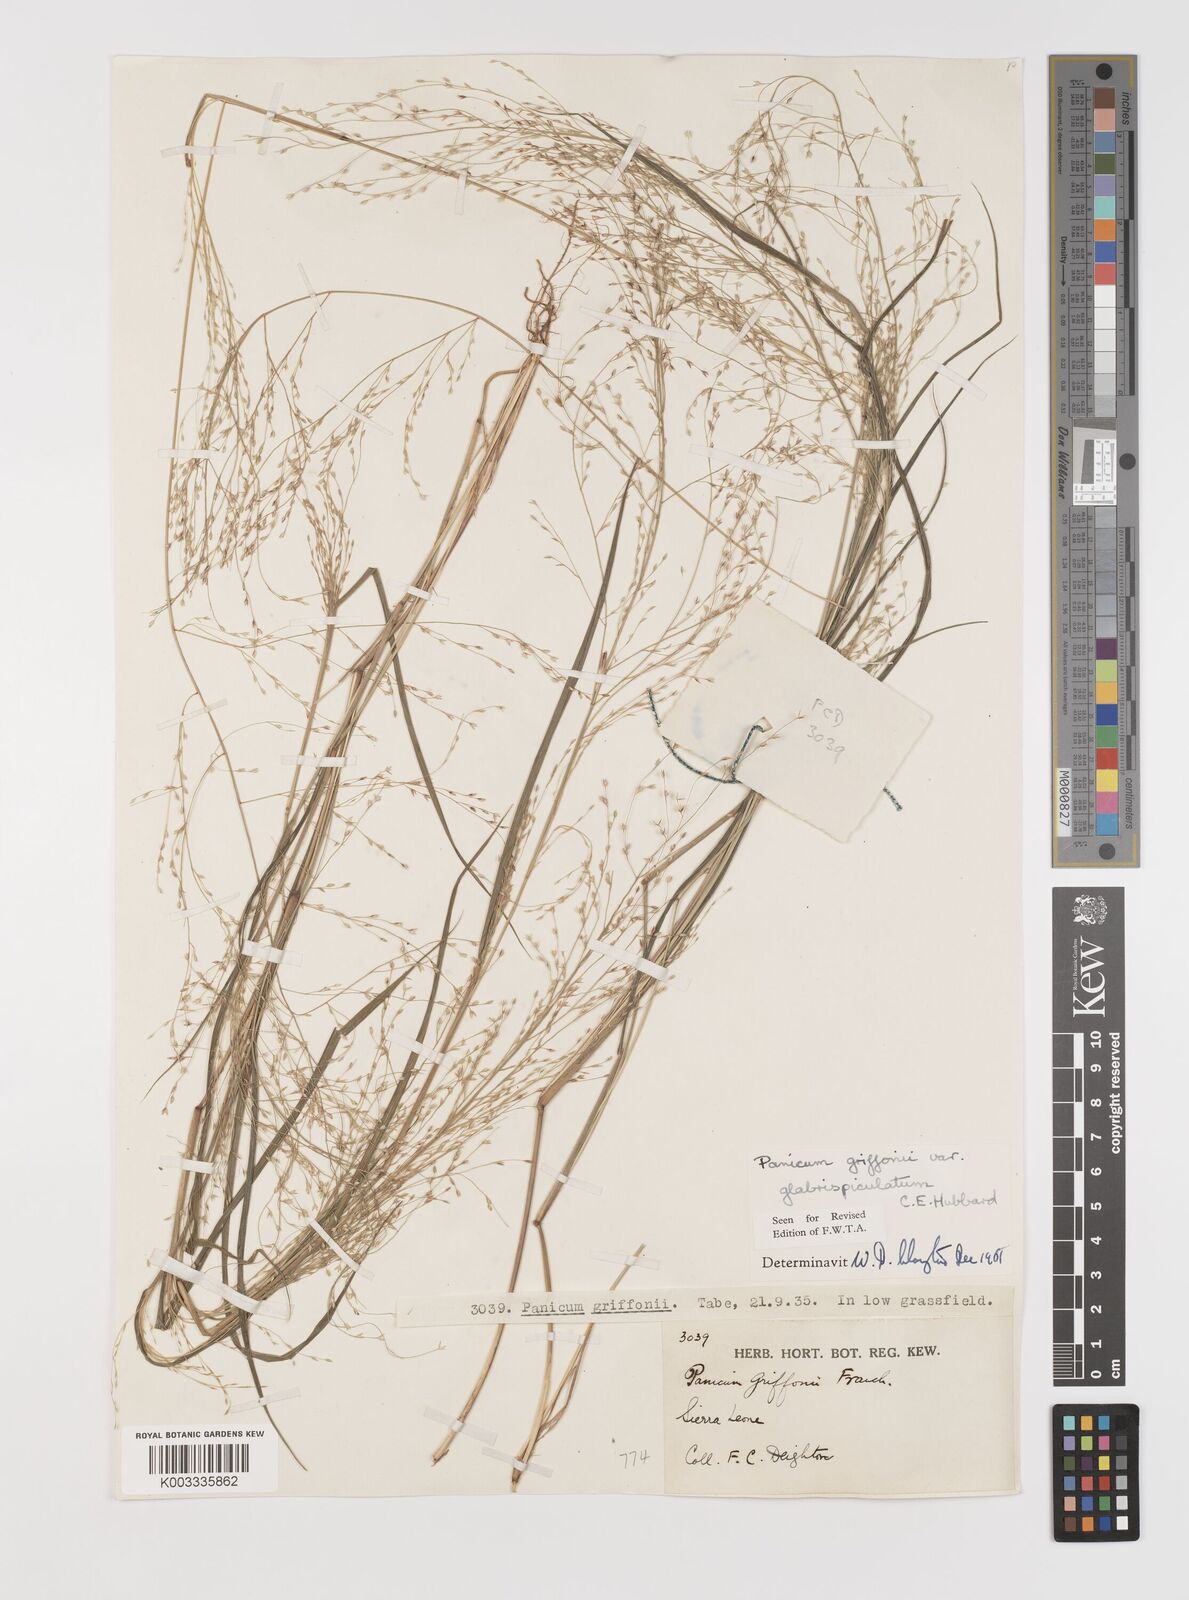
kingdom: Plantae
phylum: Tracheophyta
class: Liliopsida
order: Poales
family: Poaceae
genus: Panicum
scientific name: Panicum griffonii
